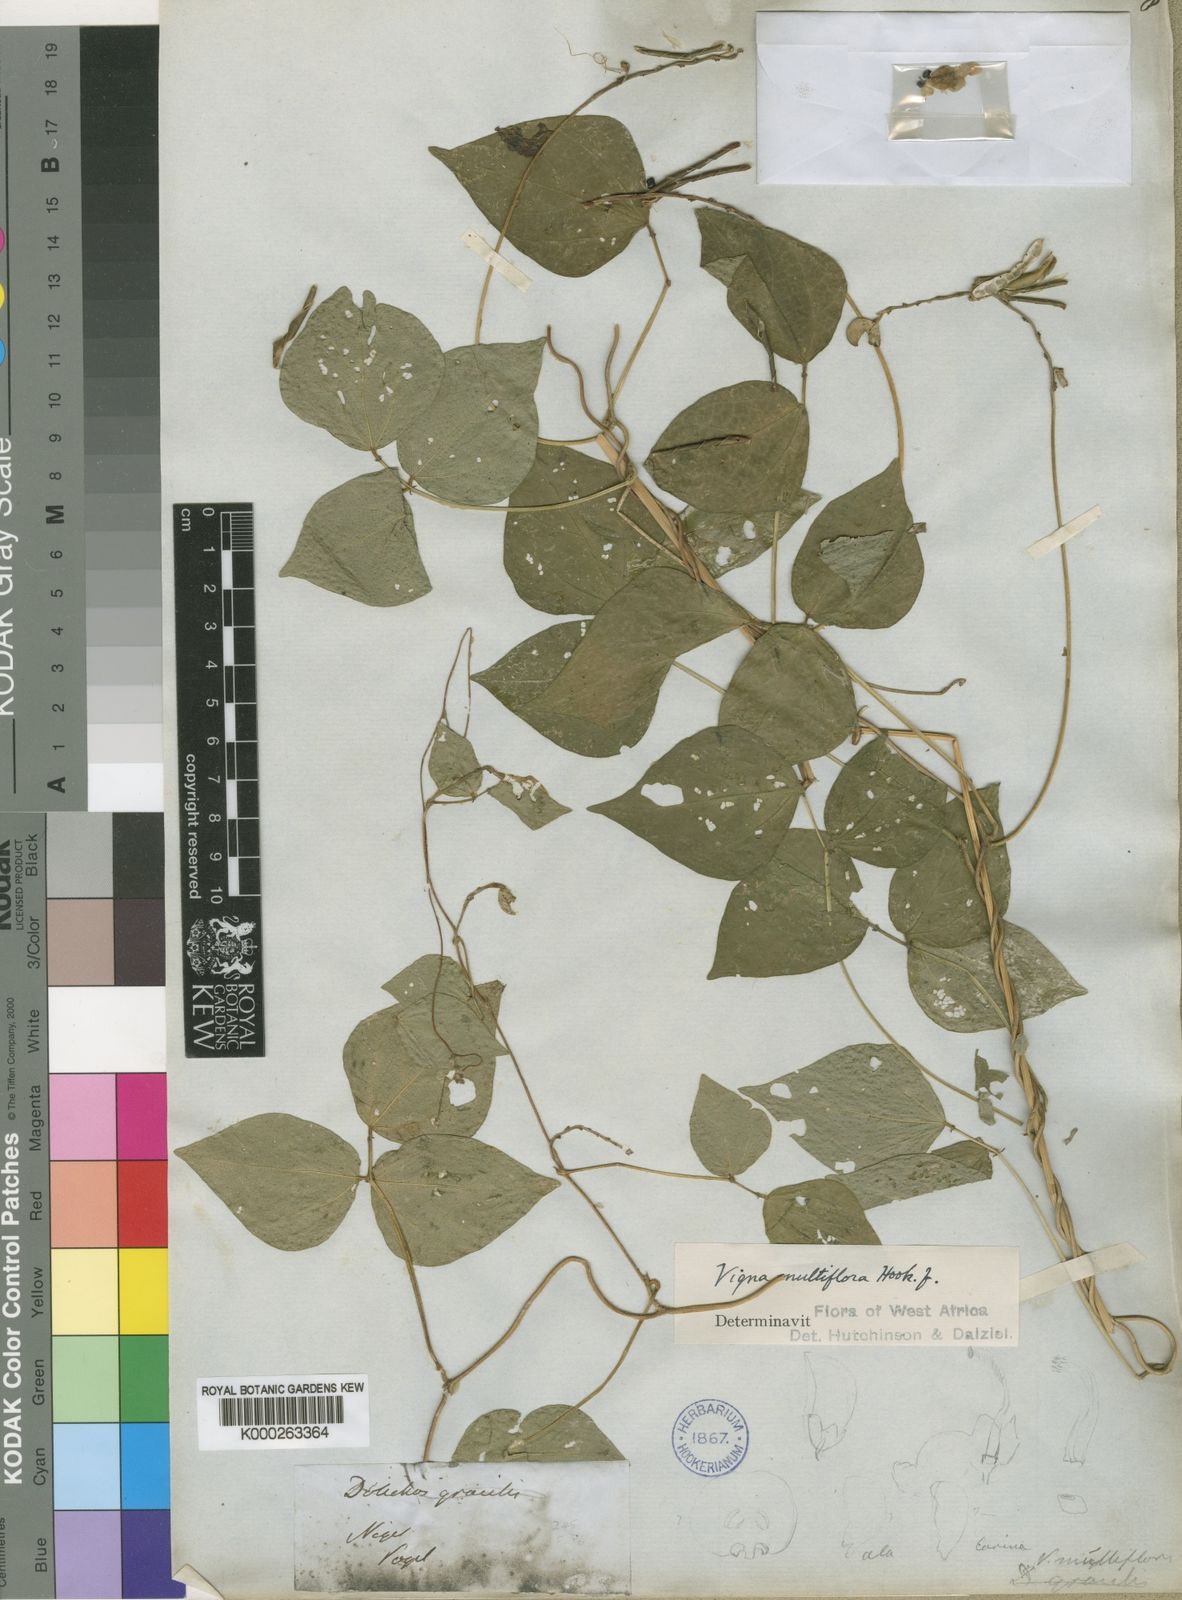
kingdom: Plantae
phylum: Tracheophyta
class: Magnoliopsida
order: Fabales
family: Fabaceae
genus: Vigna
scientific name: Vigna gracilis
